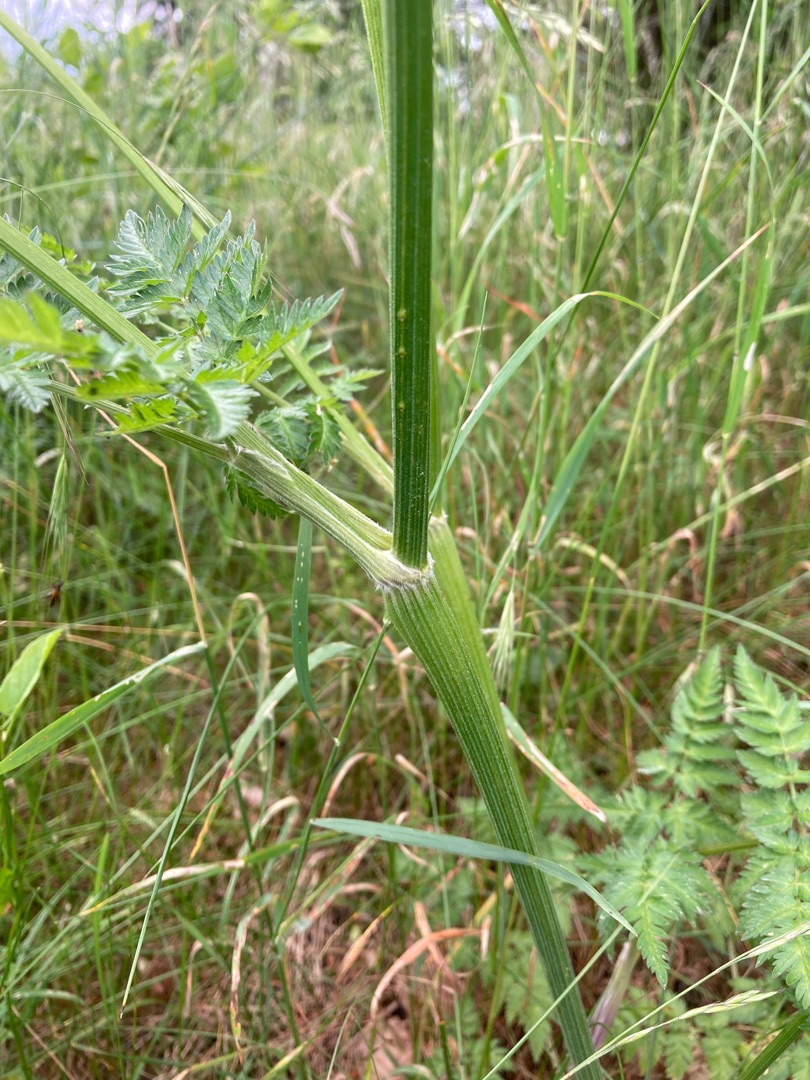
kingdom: Plantae
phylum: Tracheophyta
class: Magnoliopsida
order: Apiales
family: Apiaceae
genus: Anthriscus
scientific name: Anthriscus sylvestris
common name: Vild kørvel
